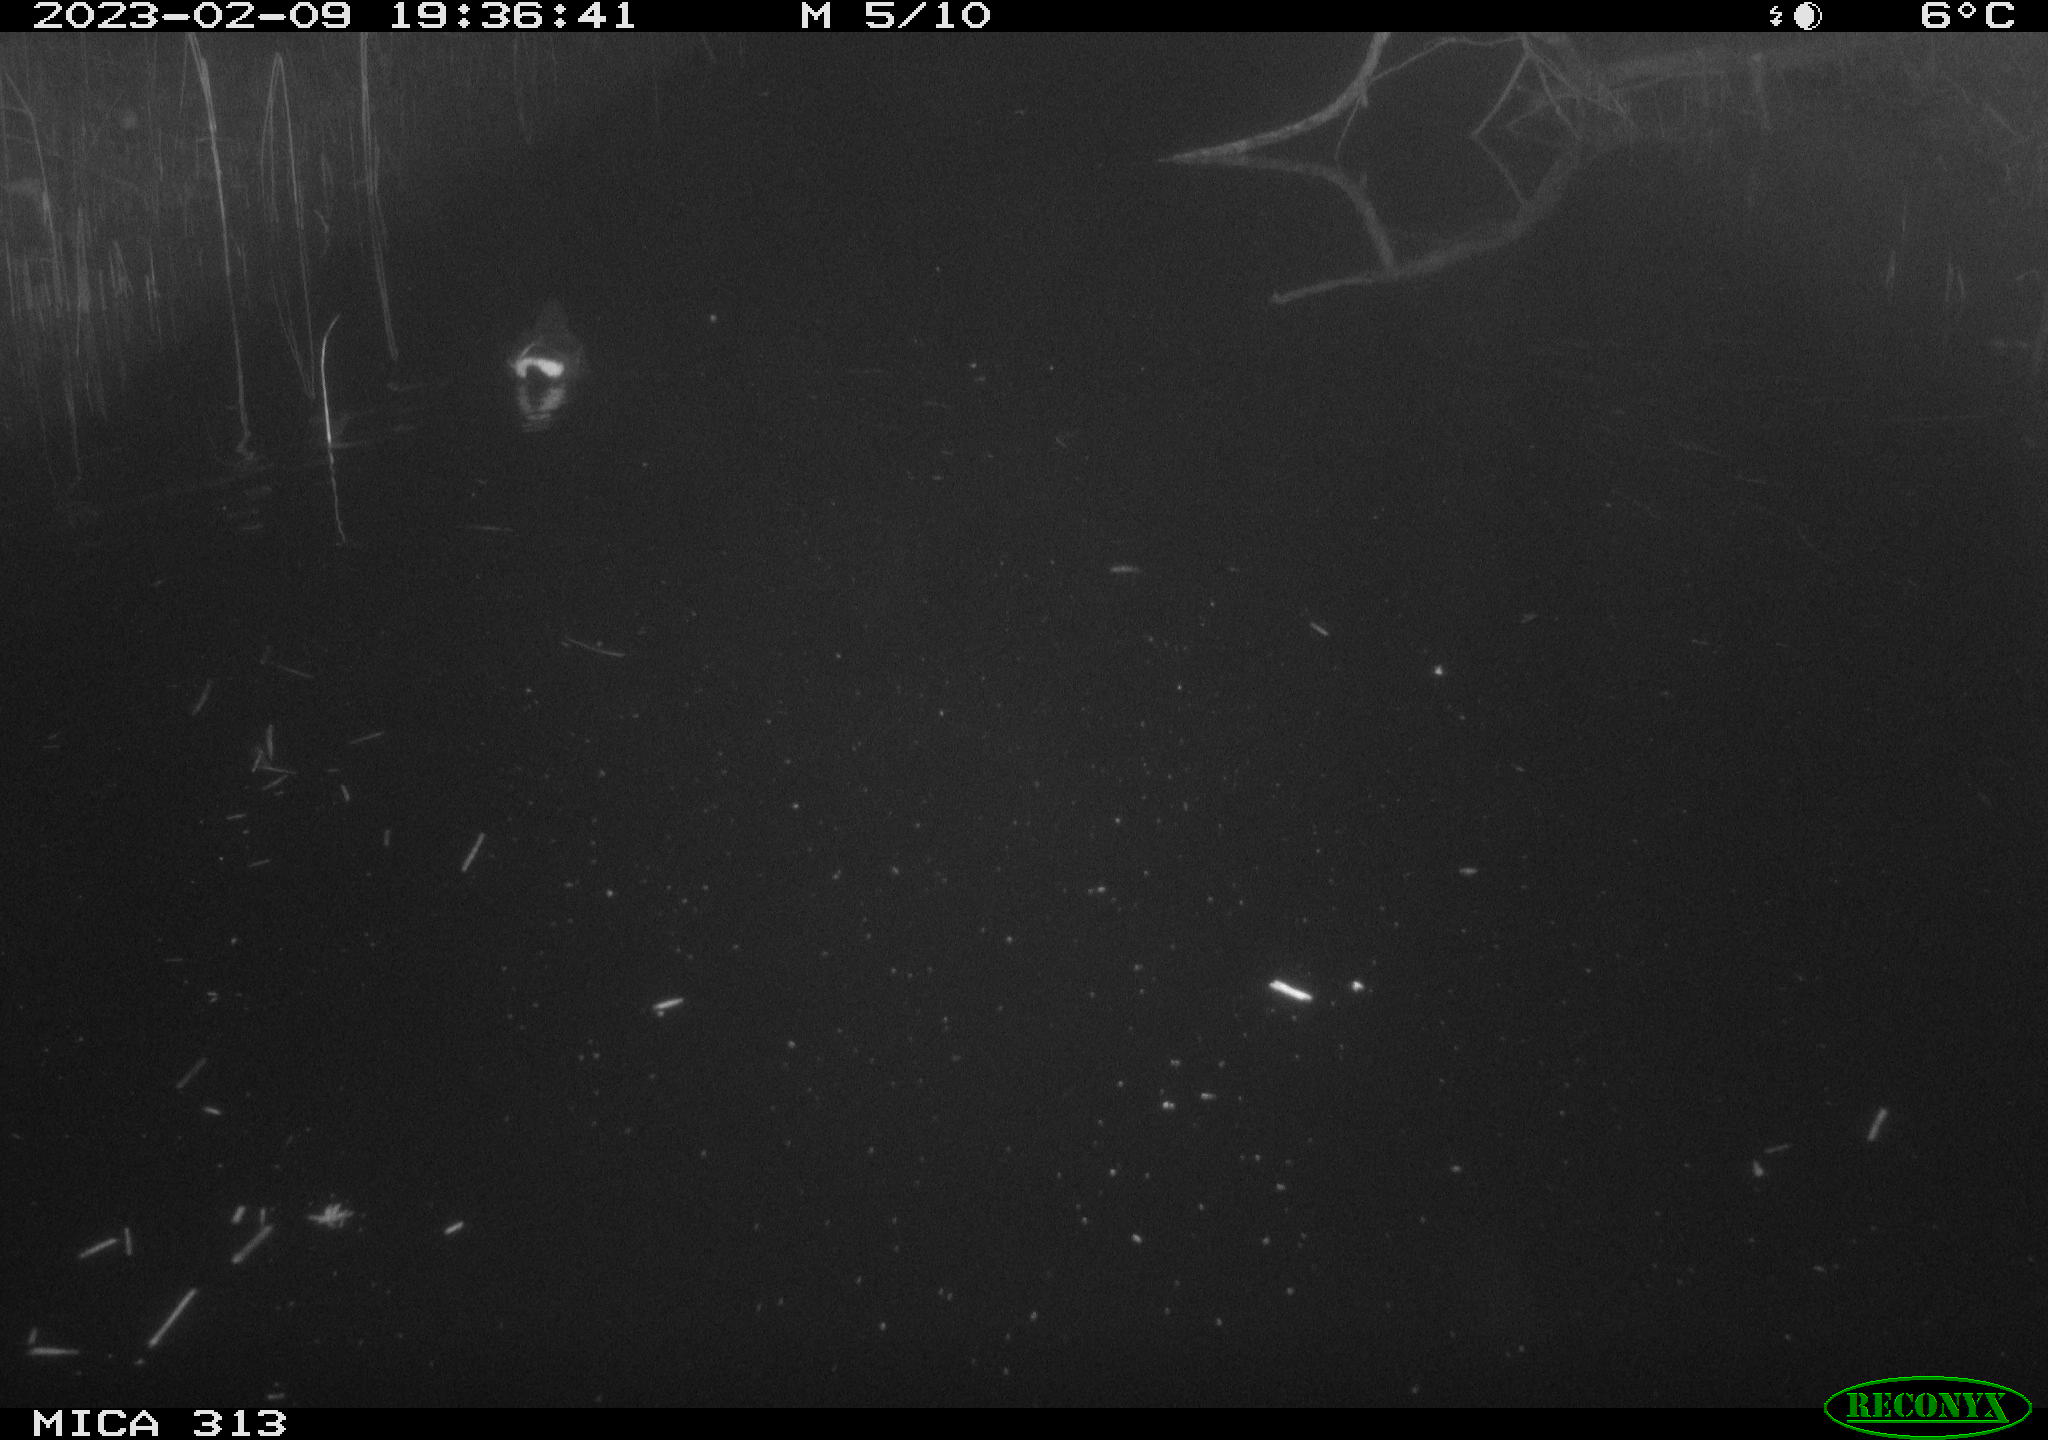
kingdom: Animalia
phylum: Chordata
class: Aves
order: Gruiformes
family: Rallidae
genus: Gallinula
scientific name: Gallinula chloropus
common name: Common moorhen
